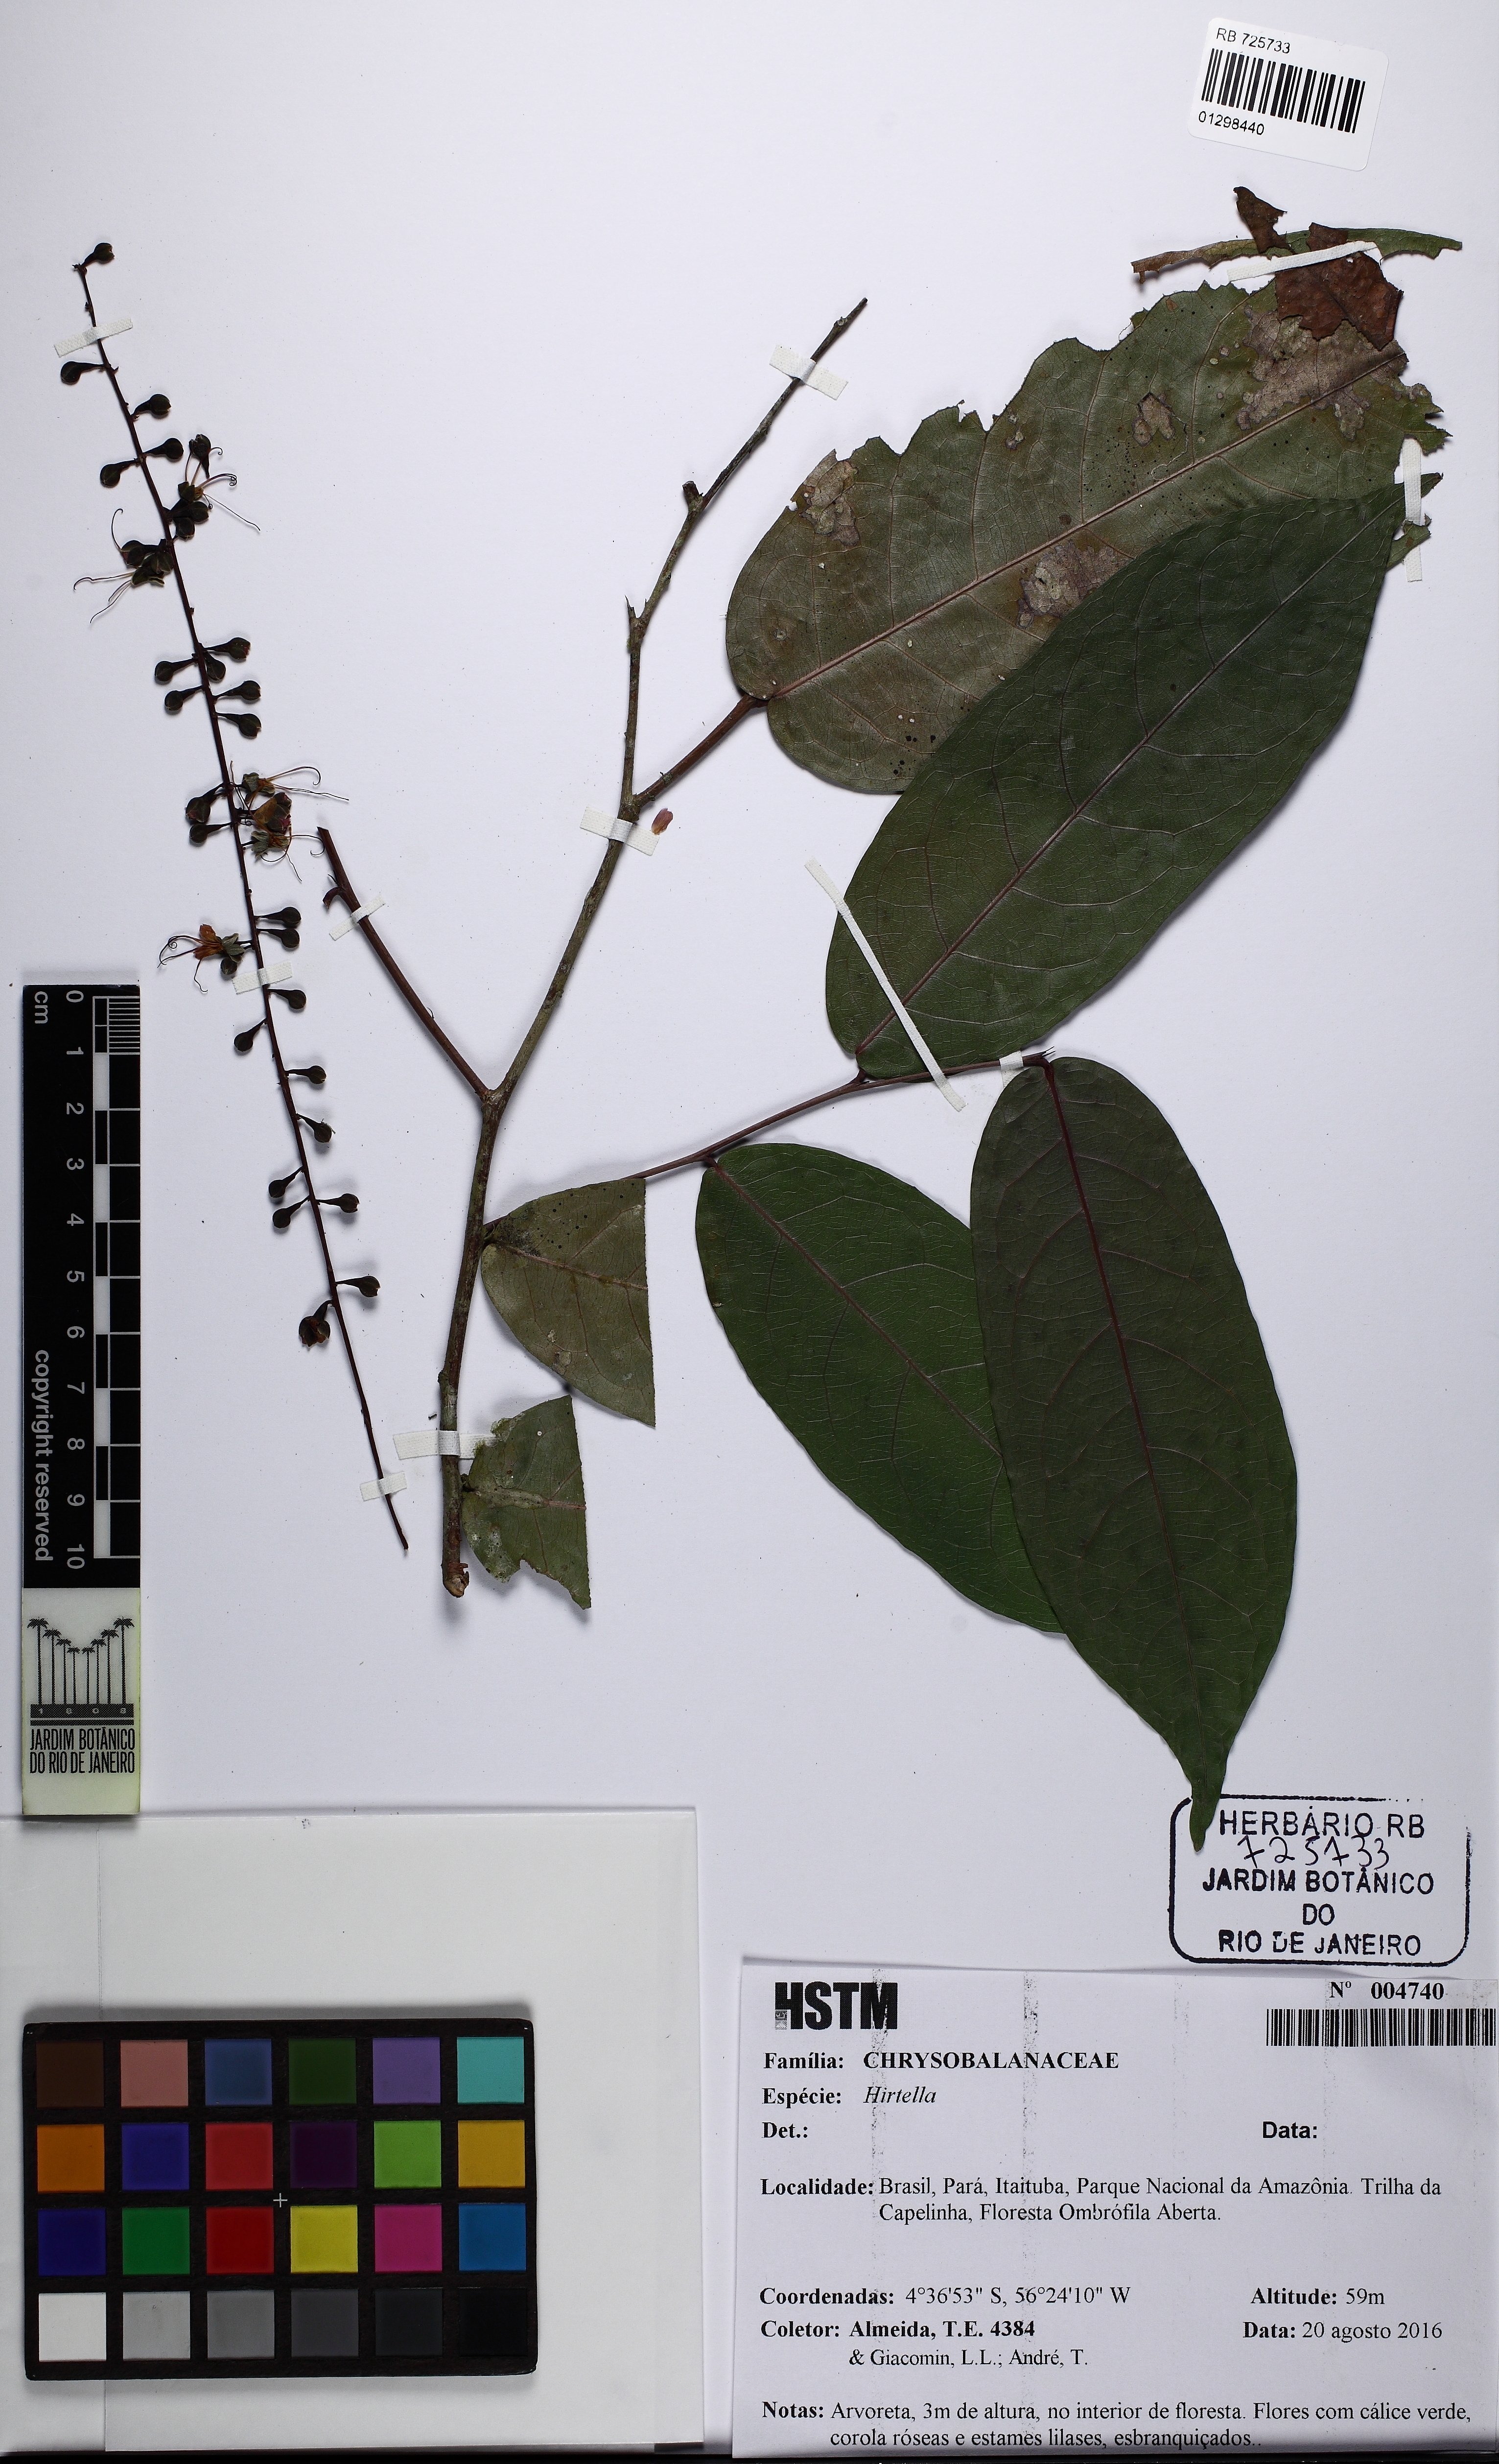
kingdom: Plantae
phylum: Tracheophyta
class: Magnoliopsida
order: Malpighiales
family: Chrysobalanaceae
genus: Hirtella
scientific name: Hirtella
